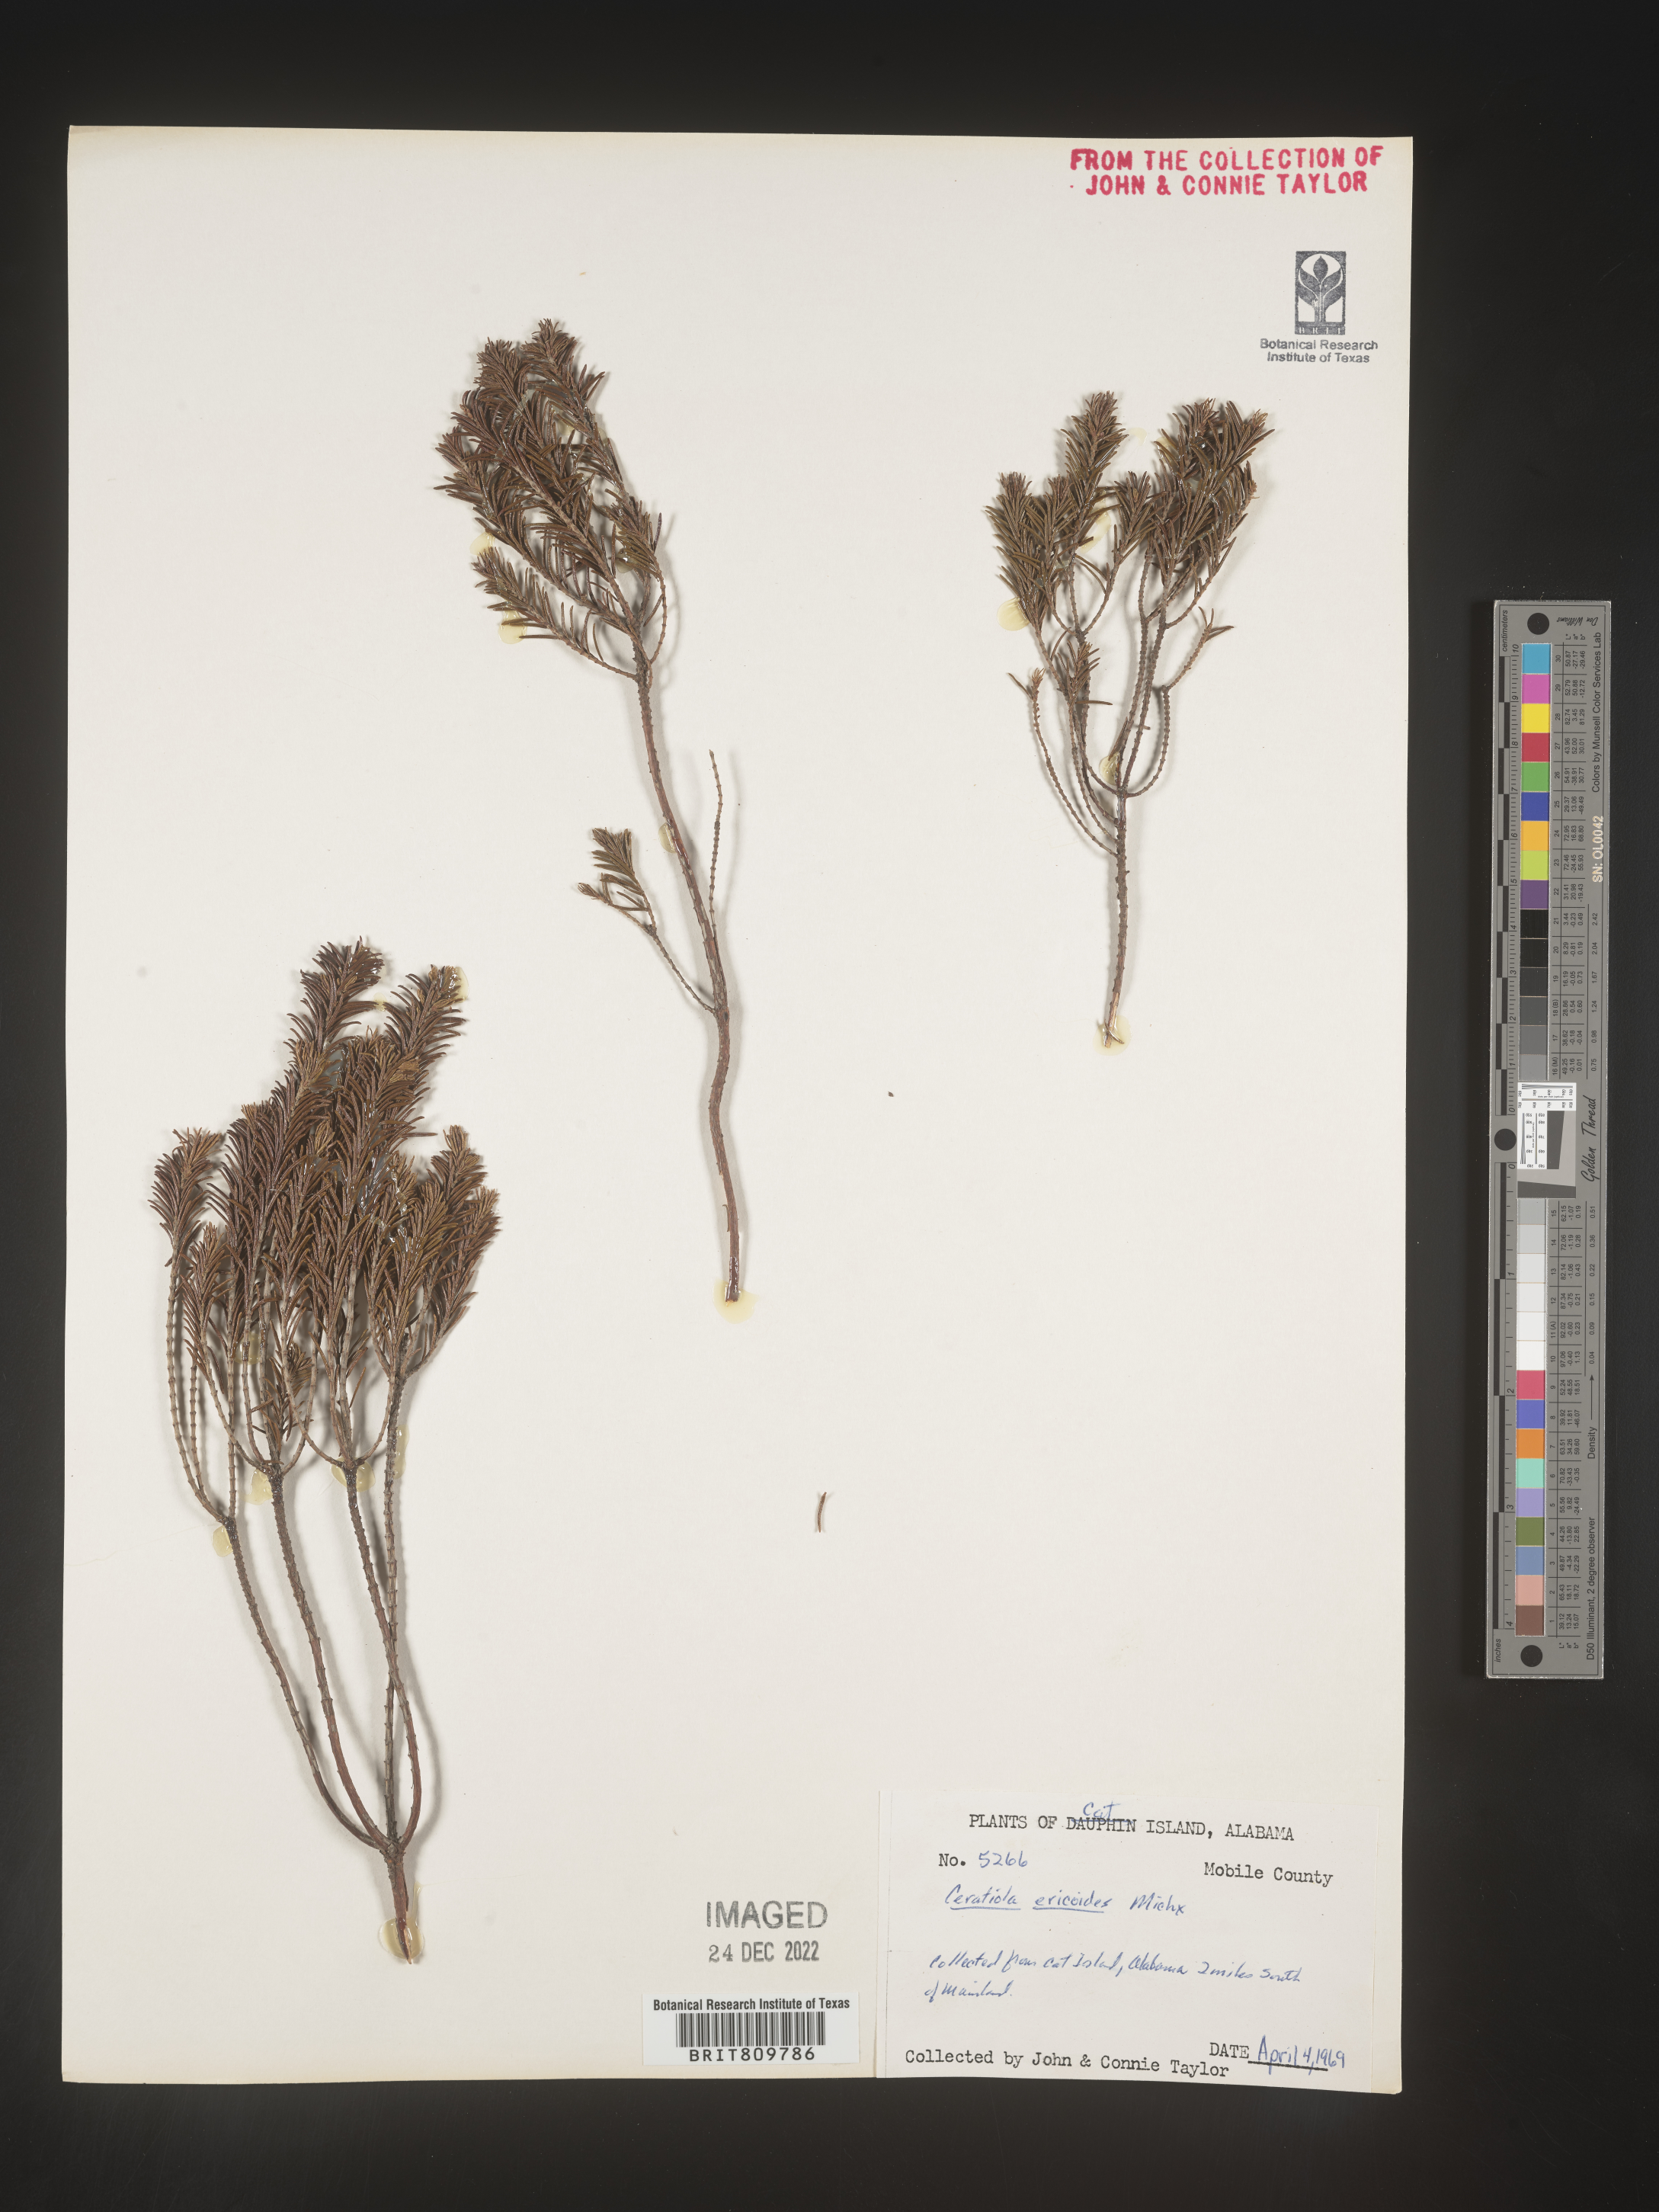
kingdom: Plantae
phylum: Tracheophyta
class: Magnoliopsida
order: Ericales
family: Ericaceae
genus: Ceratiola
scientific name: Ceratiola ericoides
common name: Sandhill-rosemary
